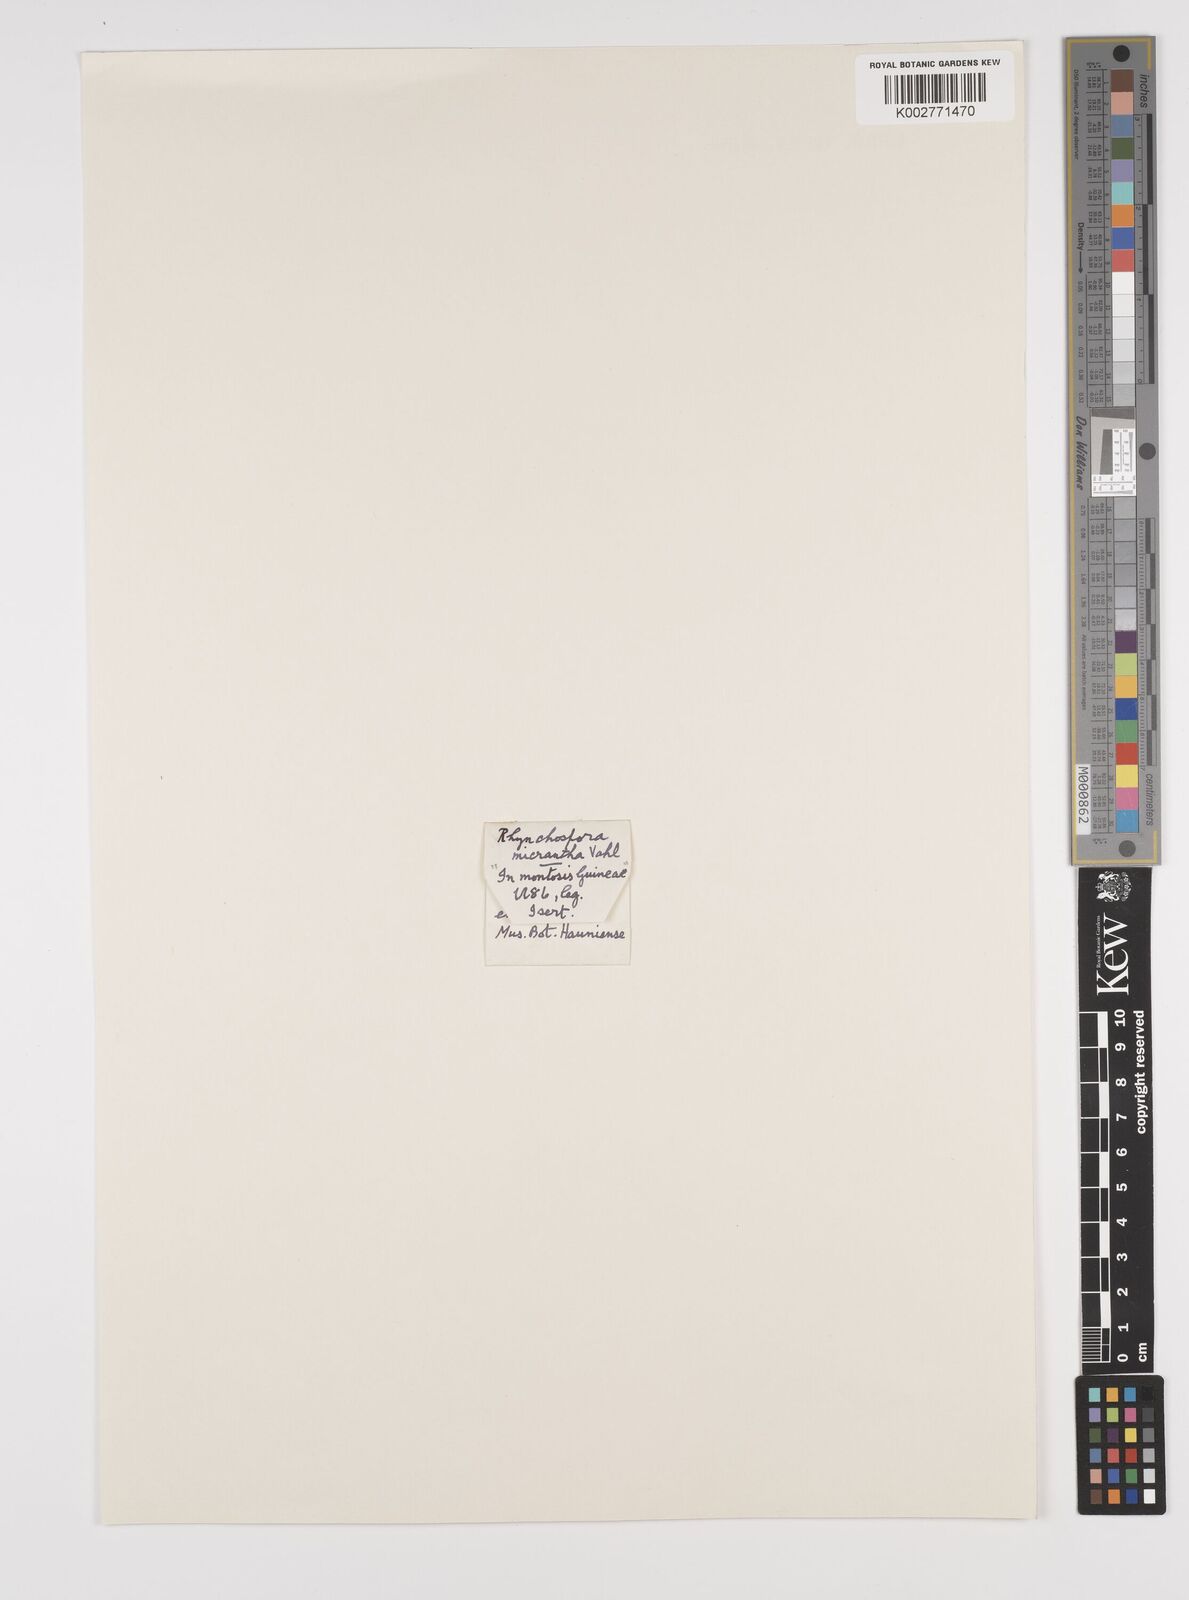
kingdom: Plantae
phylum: Tracheophyta
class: Liliopsida
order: Poales
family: Cyperaceae
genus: Rhynchospora
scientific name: Rhynchospora
